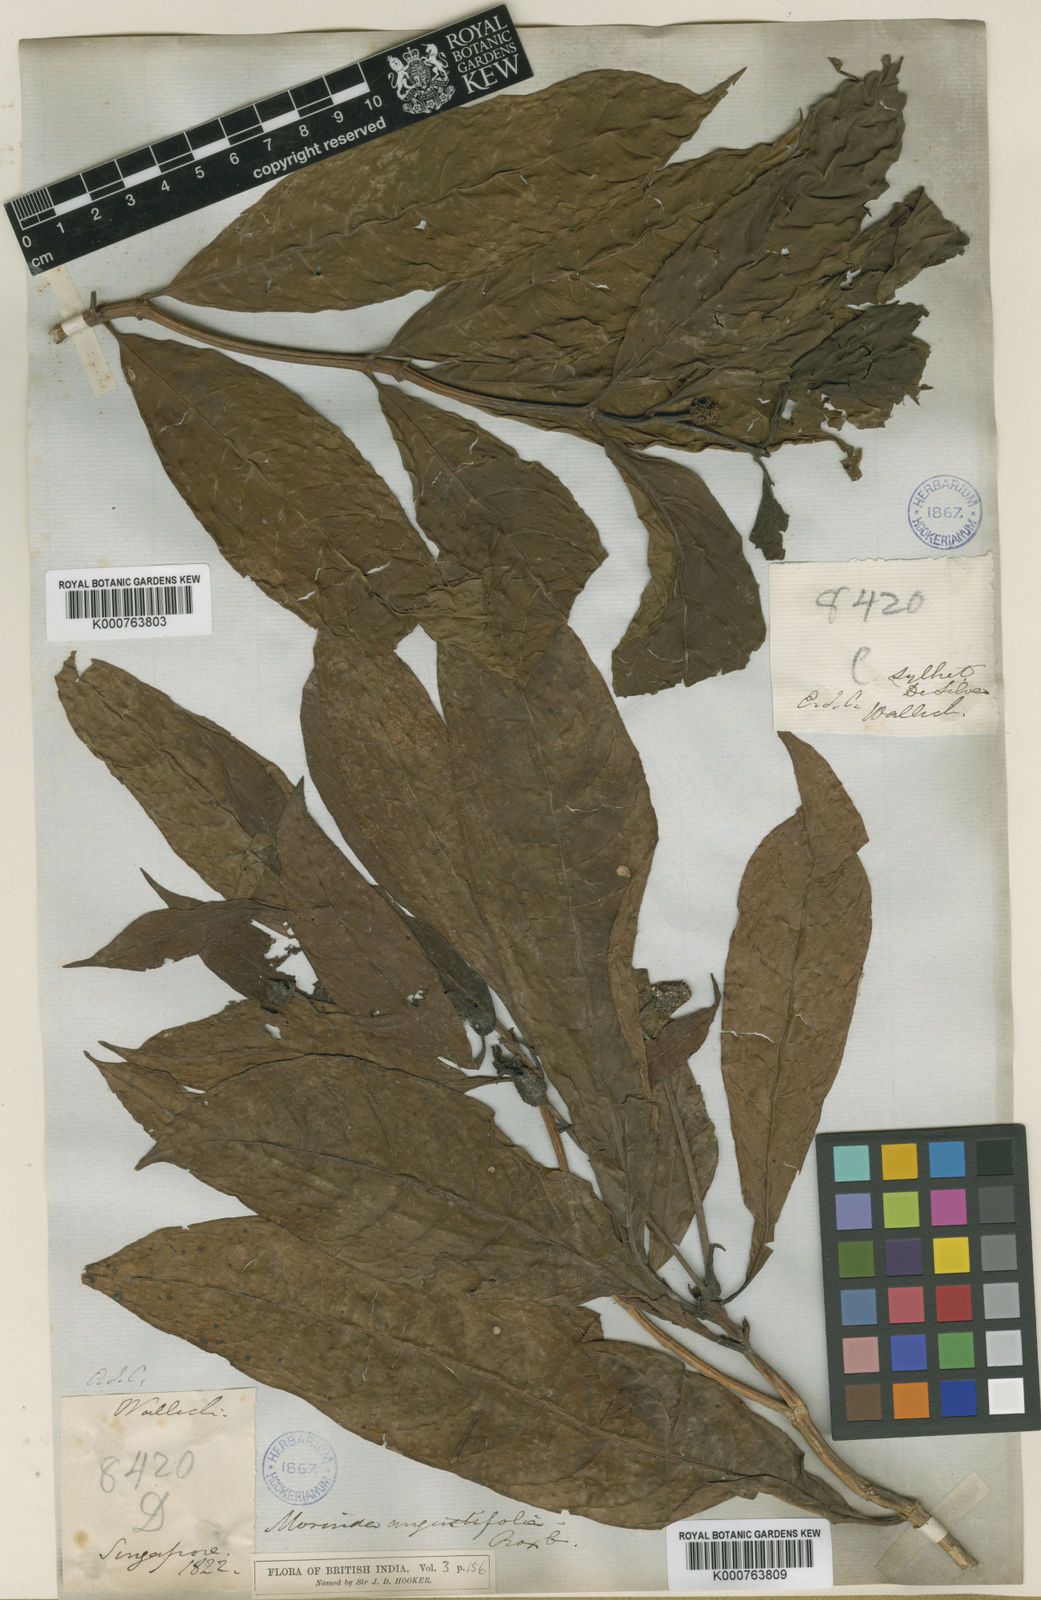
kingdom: Plantae
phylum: Tracheophyta
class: Magnoliopsida
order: Gentianales
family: Rubiaceae
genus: Morinda
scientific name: Morinda elliptica
